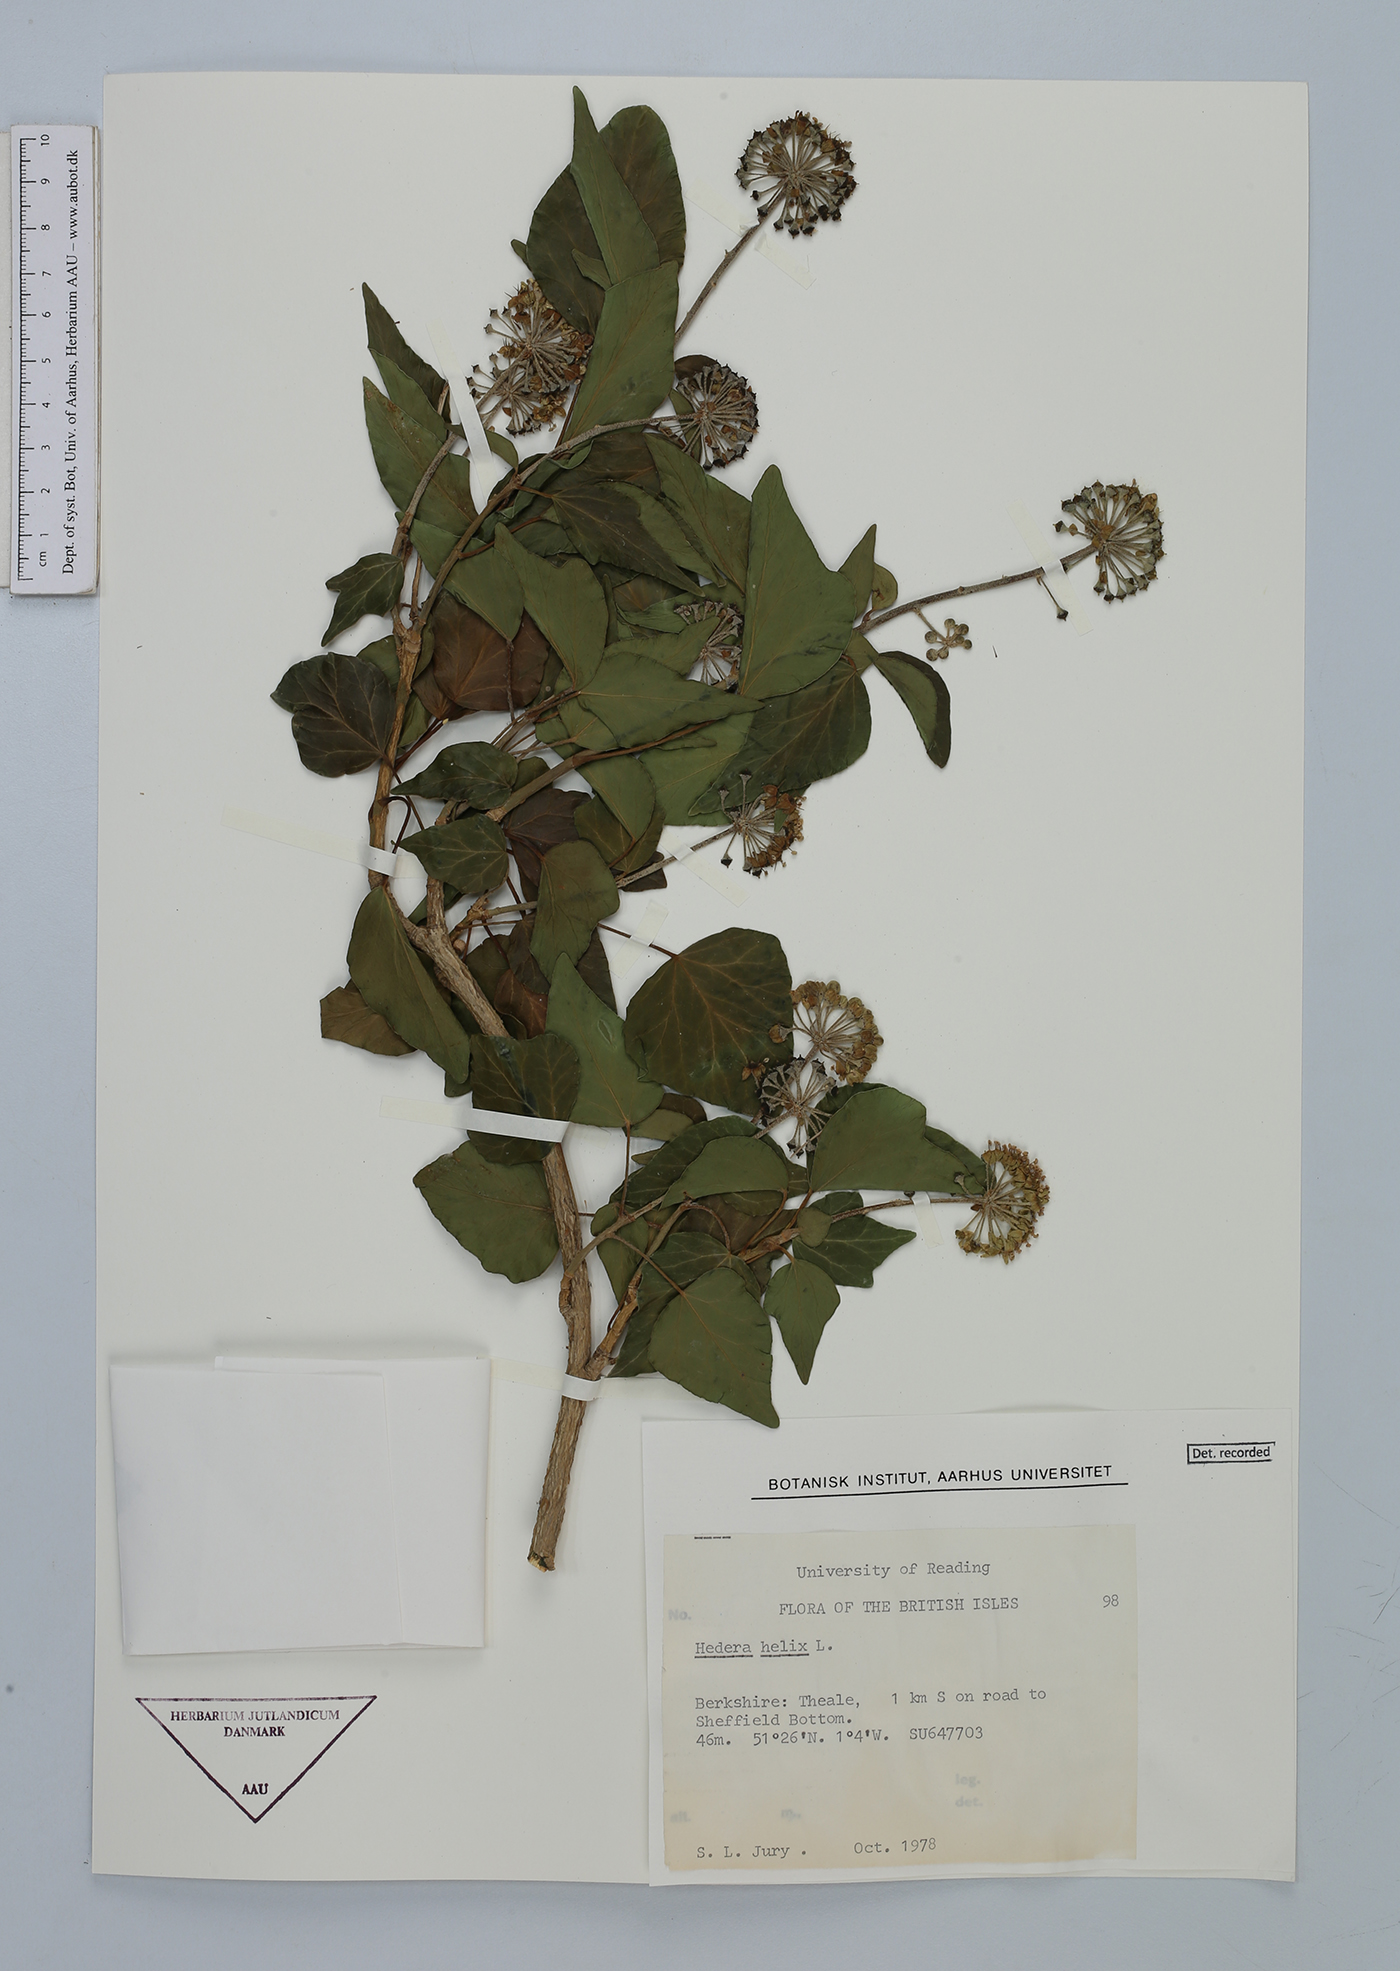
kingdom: Plantae
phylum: Tracheophyta
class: Magnoliopsida
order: Apiales
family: Araliaceae
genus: Hedera
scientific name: Hedera helix
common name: Ivy
